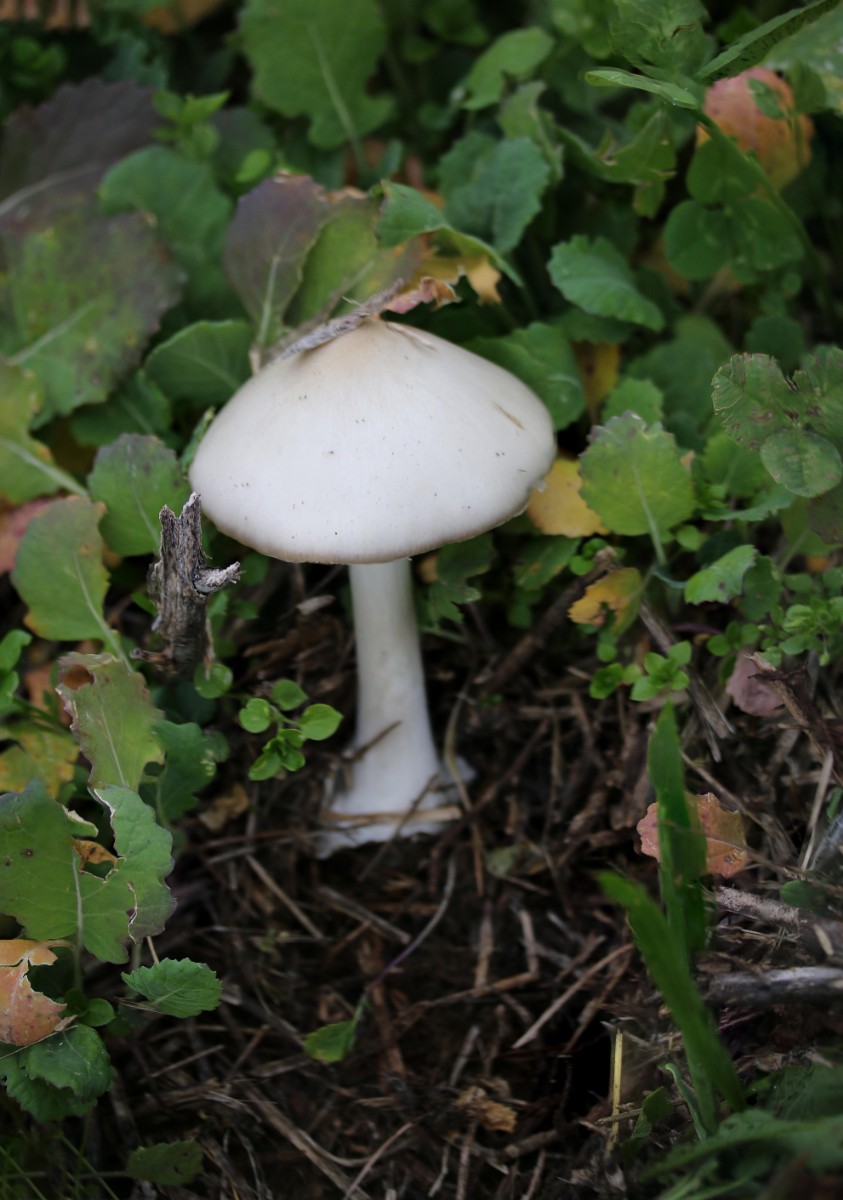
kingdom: Fungi
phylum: Basidiomycota
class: Agaricomycetes
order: Agaricales
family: Pluteaceae
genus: Volvopluteus
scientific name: Volvopluteus gloiocephalus
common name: høj posesvamp
